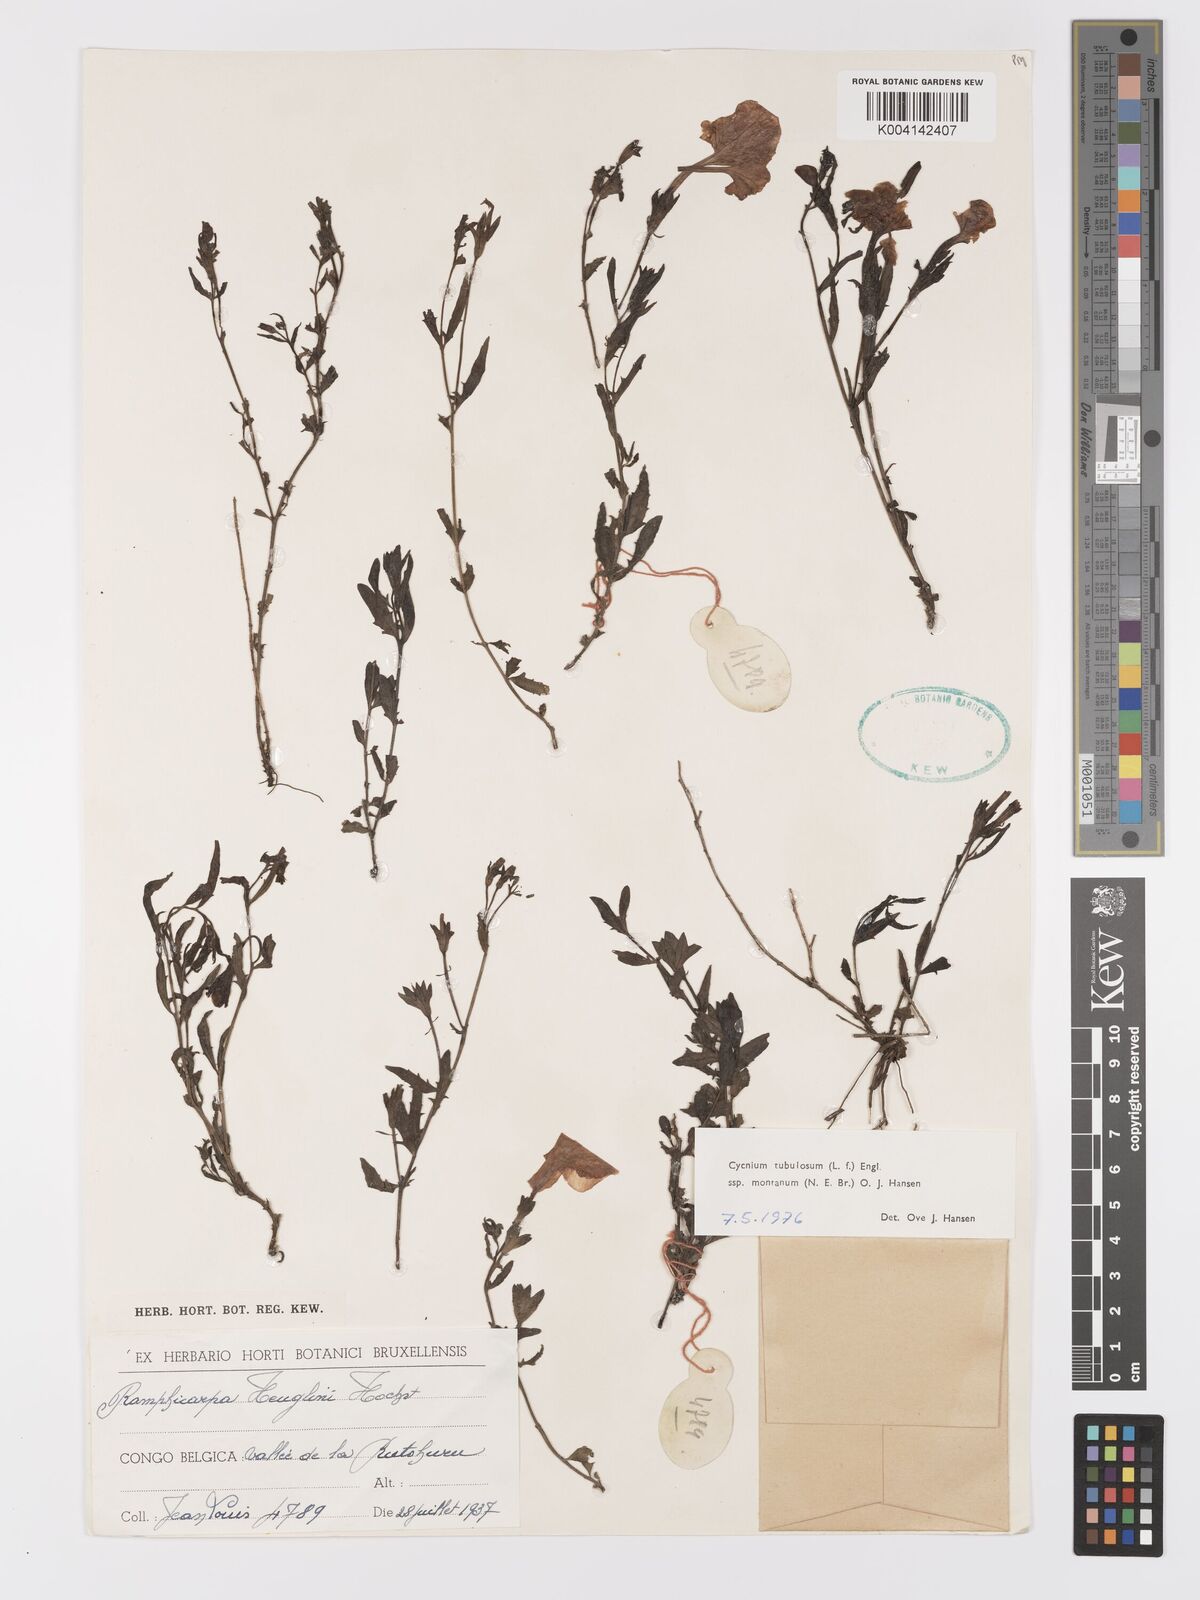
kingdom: Plantae
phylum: Tracheophyta
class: Magnoliopsida
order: Lamiales
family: Orobanchaceae
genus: Cycnium
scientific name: Cycnium tubulosum
